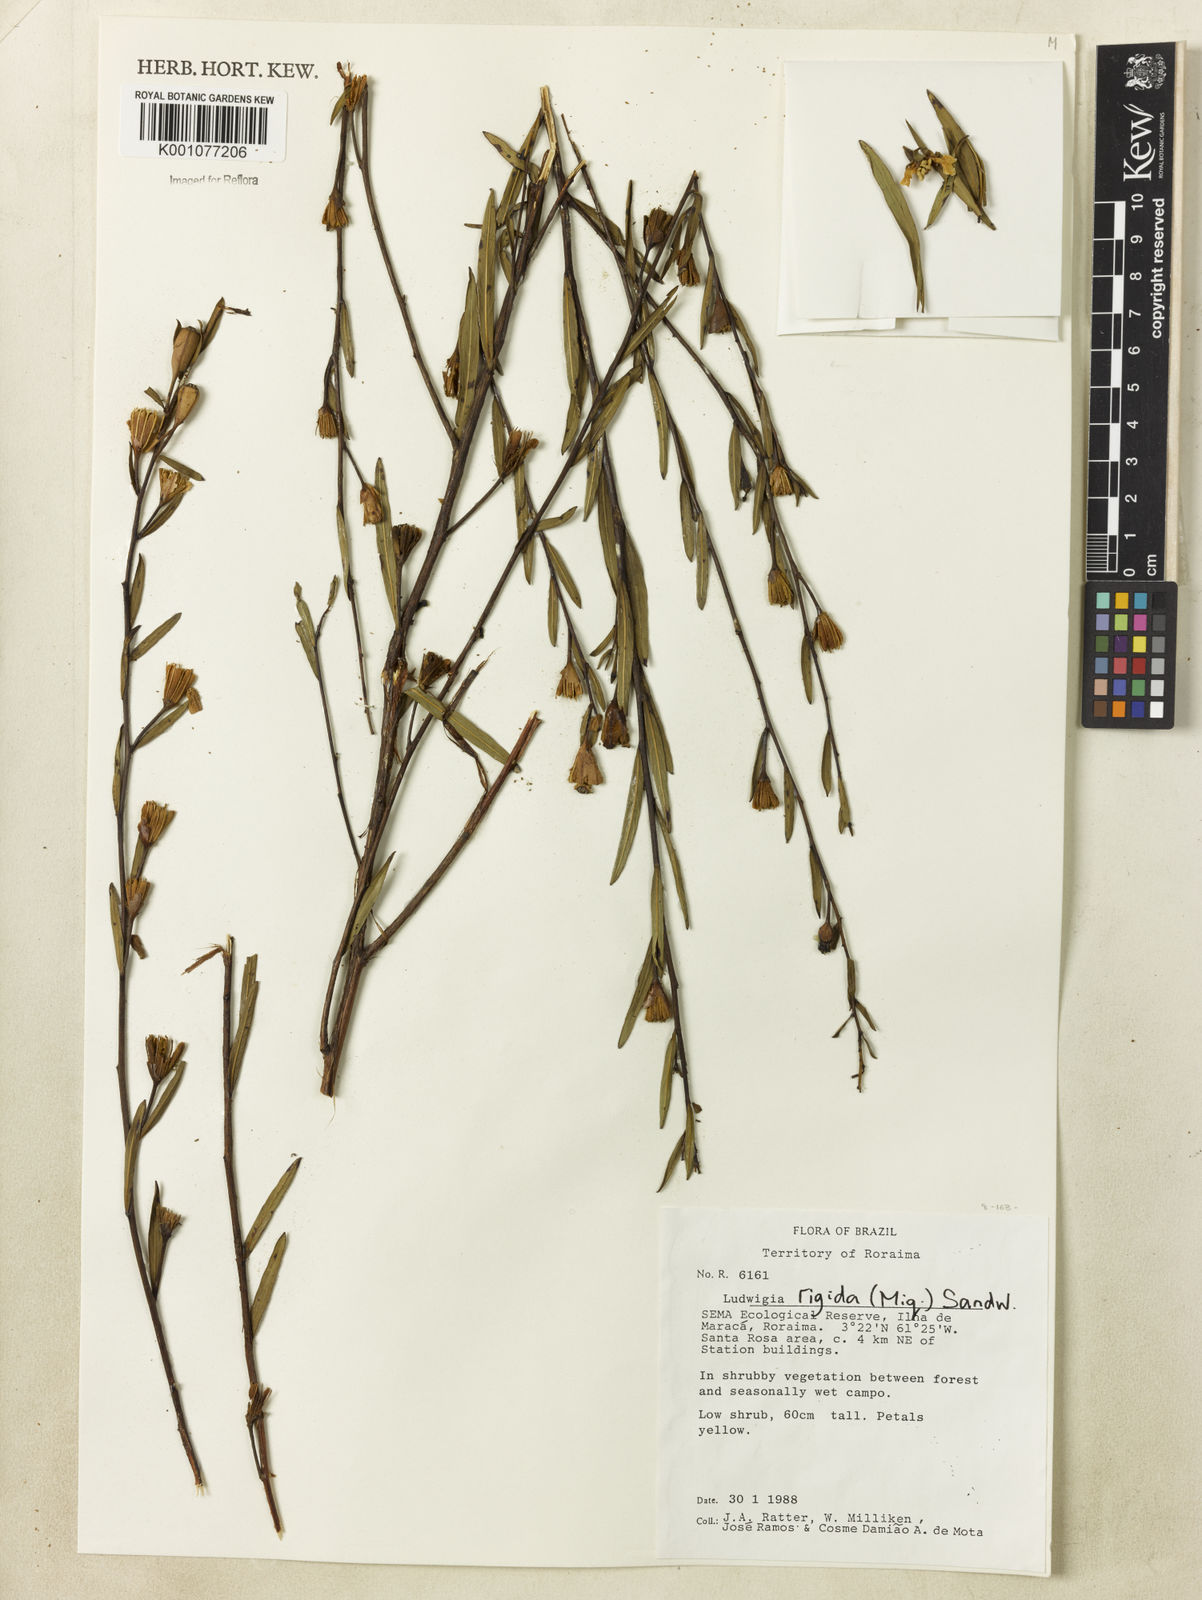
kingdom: Plantae
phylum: Tracheophyta
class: Magnoliopsida
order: Myrtales
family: Onagraceae
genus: Ludwigia
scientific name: Ludwigia rigida
